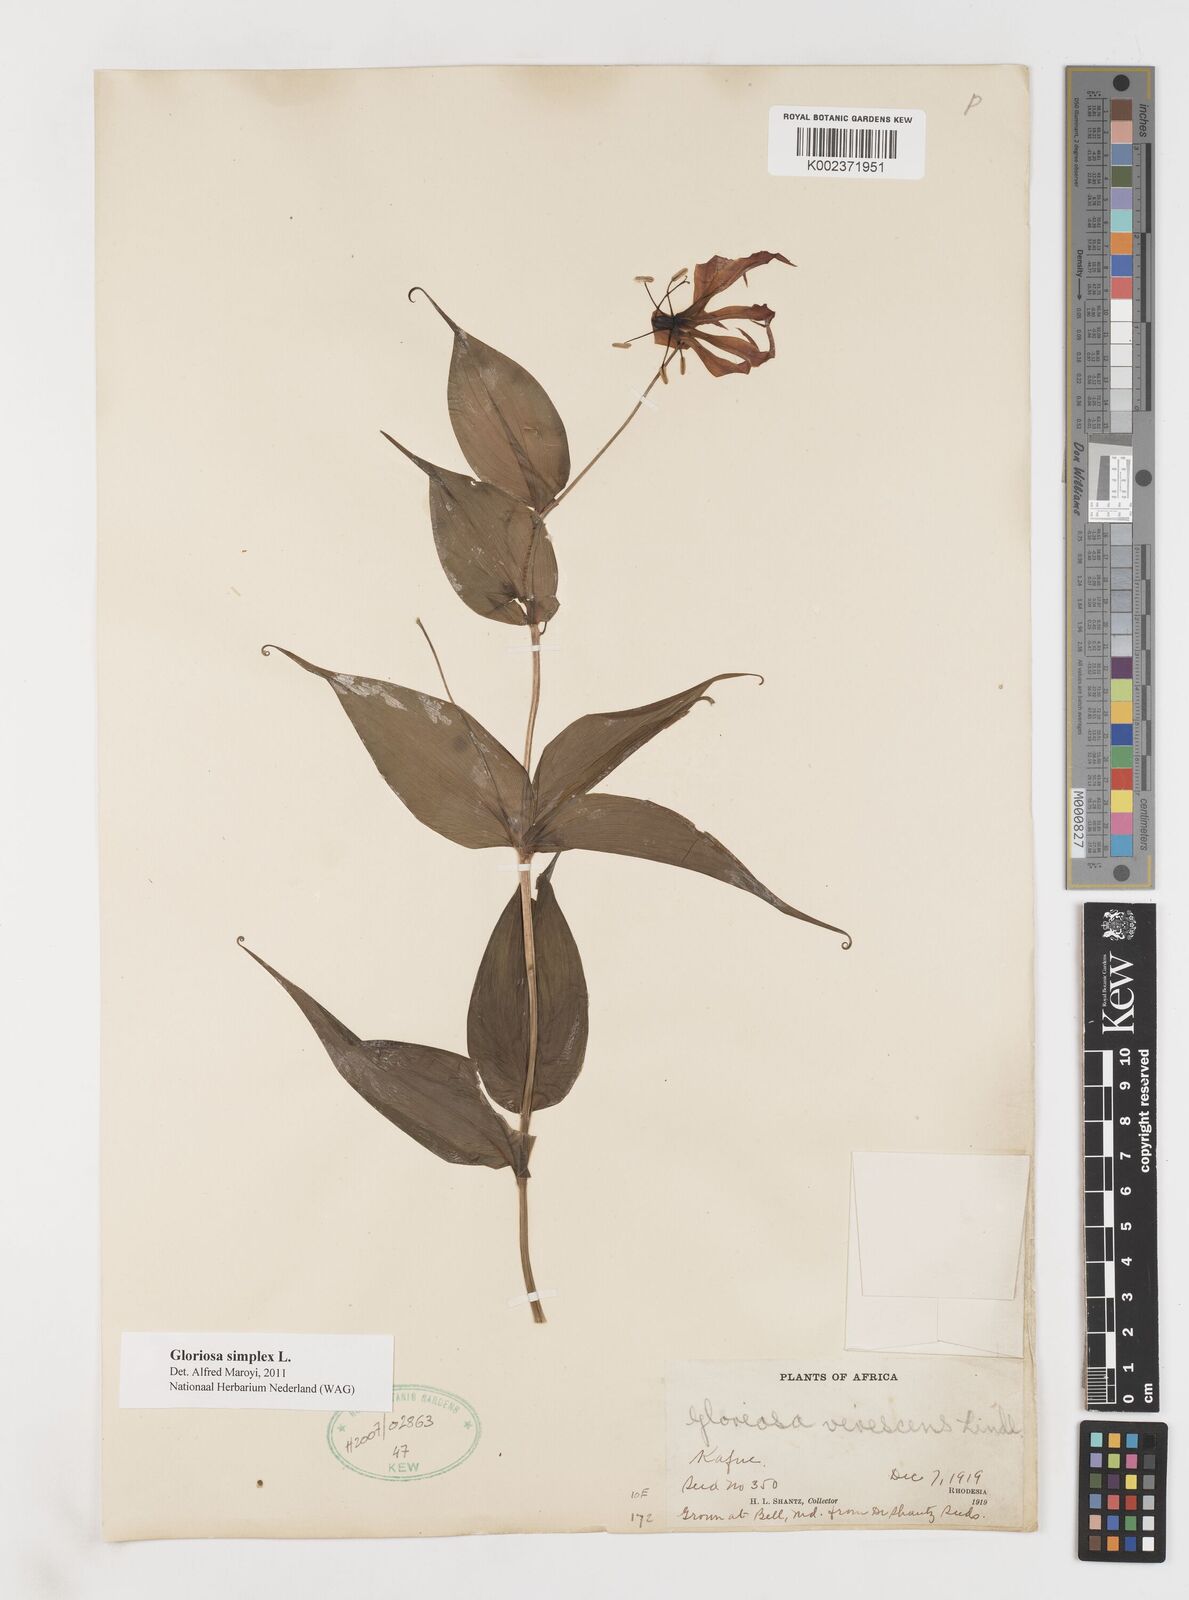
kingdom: Plantae
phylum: Tracheophyta
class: Liliopsida
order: Liliales
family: Colchicaceae
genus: Gloriosa
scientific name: Gloriosa simplex
